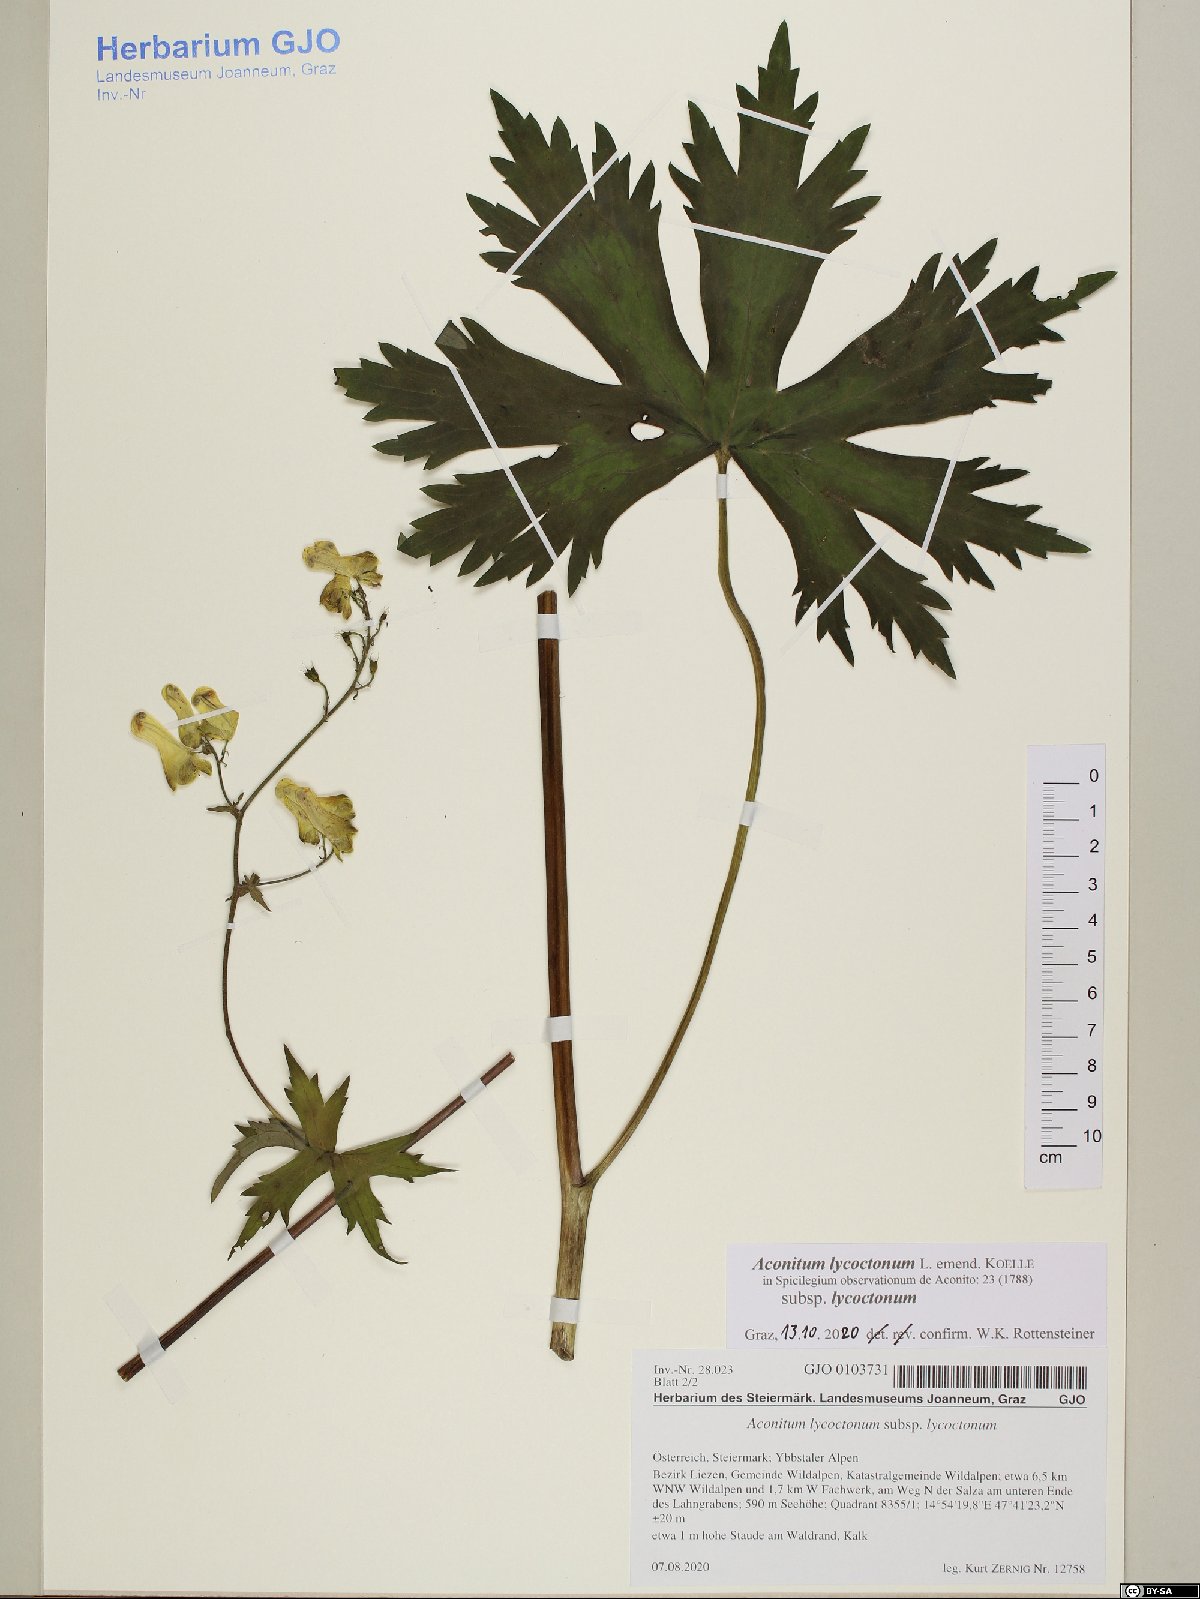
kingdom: Plantae
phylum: Tracheophyta
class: Magnoliopsida
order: Ranunculales
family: Ranunculaceae
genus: Aconitum
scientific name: Aconitum lycoctonum
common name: Wolf's-bane
